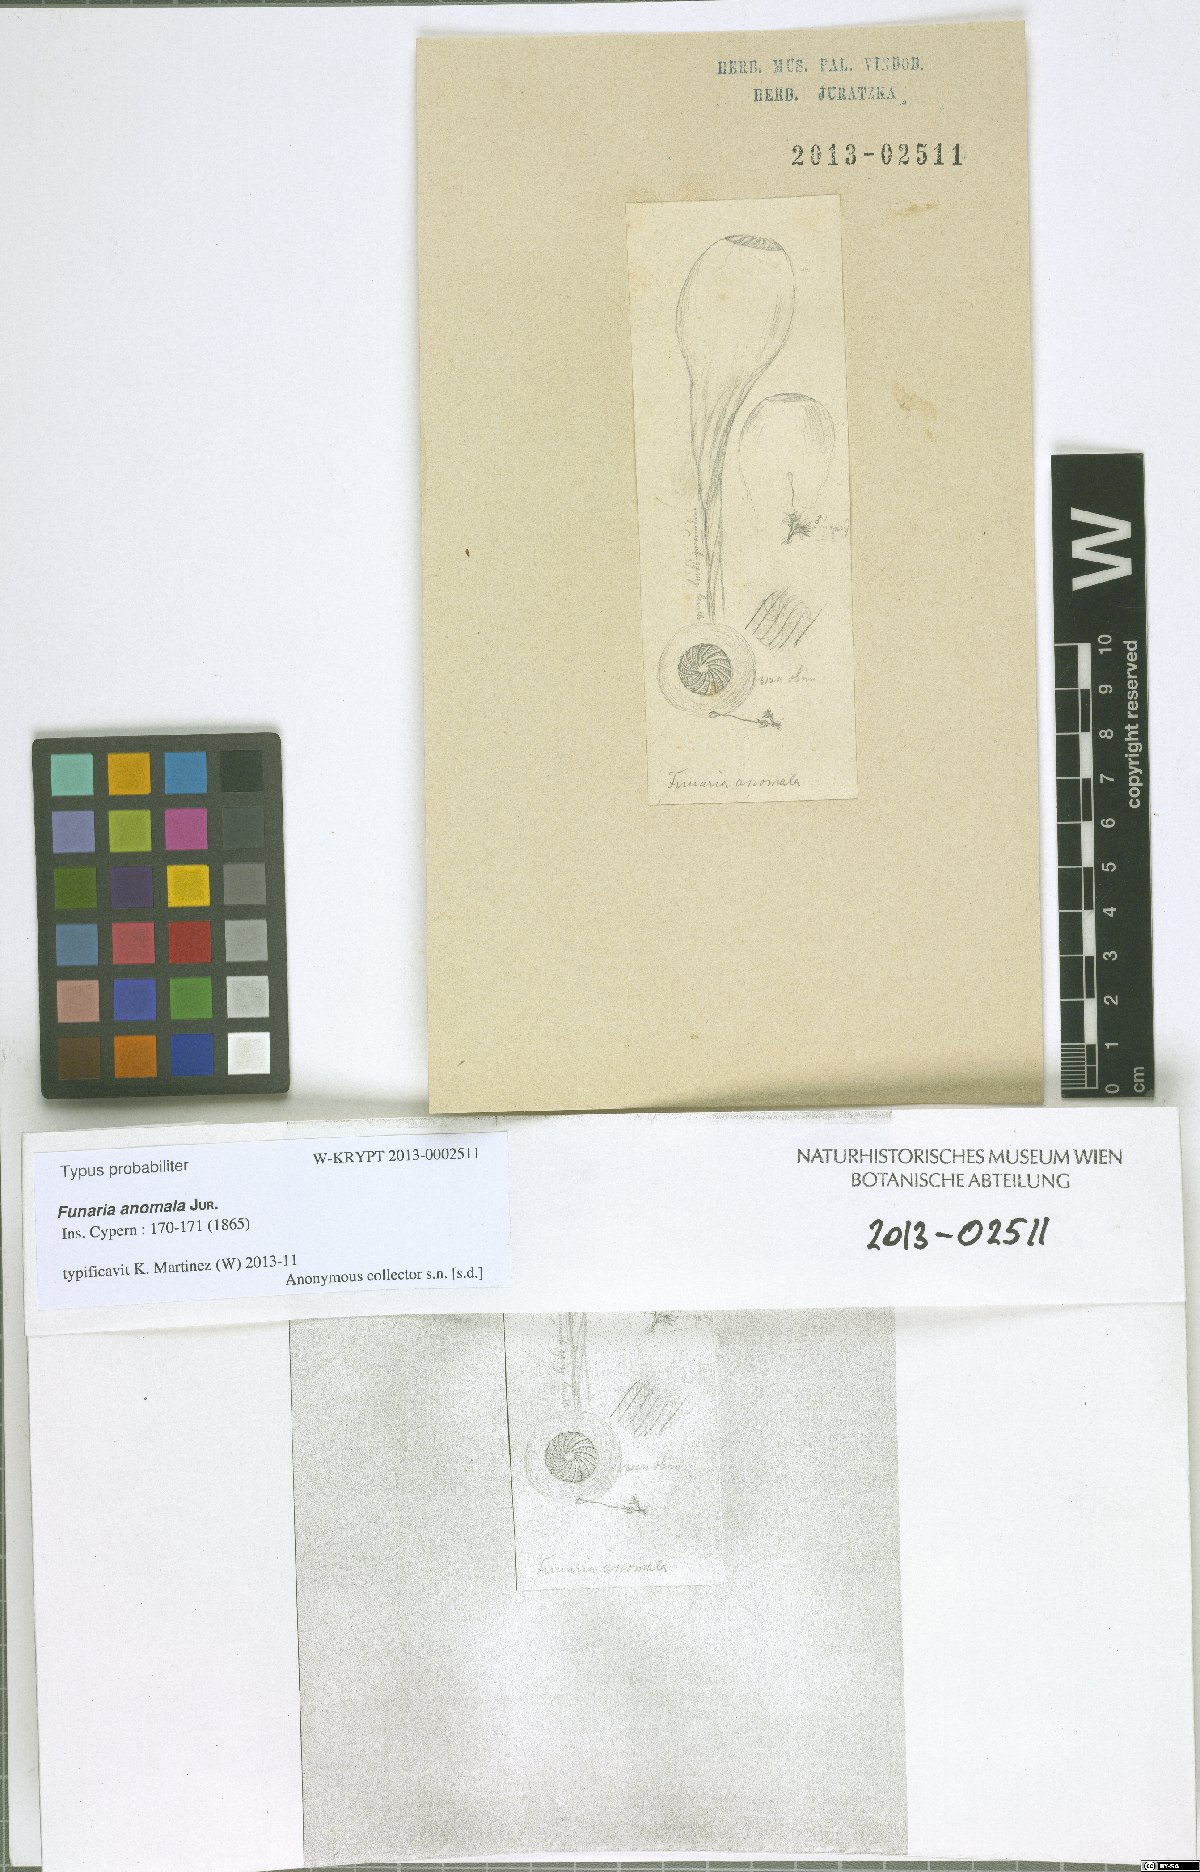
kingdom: Plantae
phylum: Bryophyta
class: Bryopsida
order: Funariales
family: Funariaceae
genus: Funaria
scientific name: Funaria anomala
